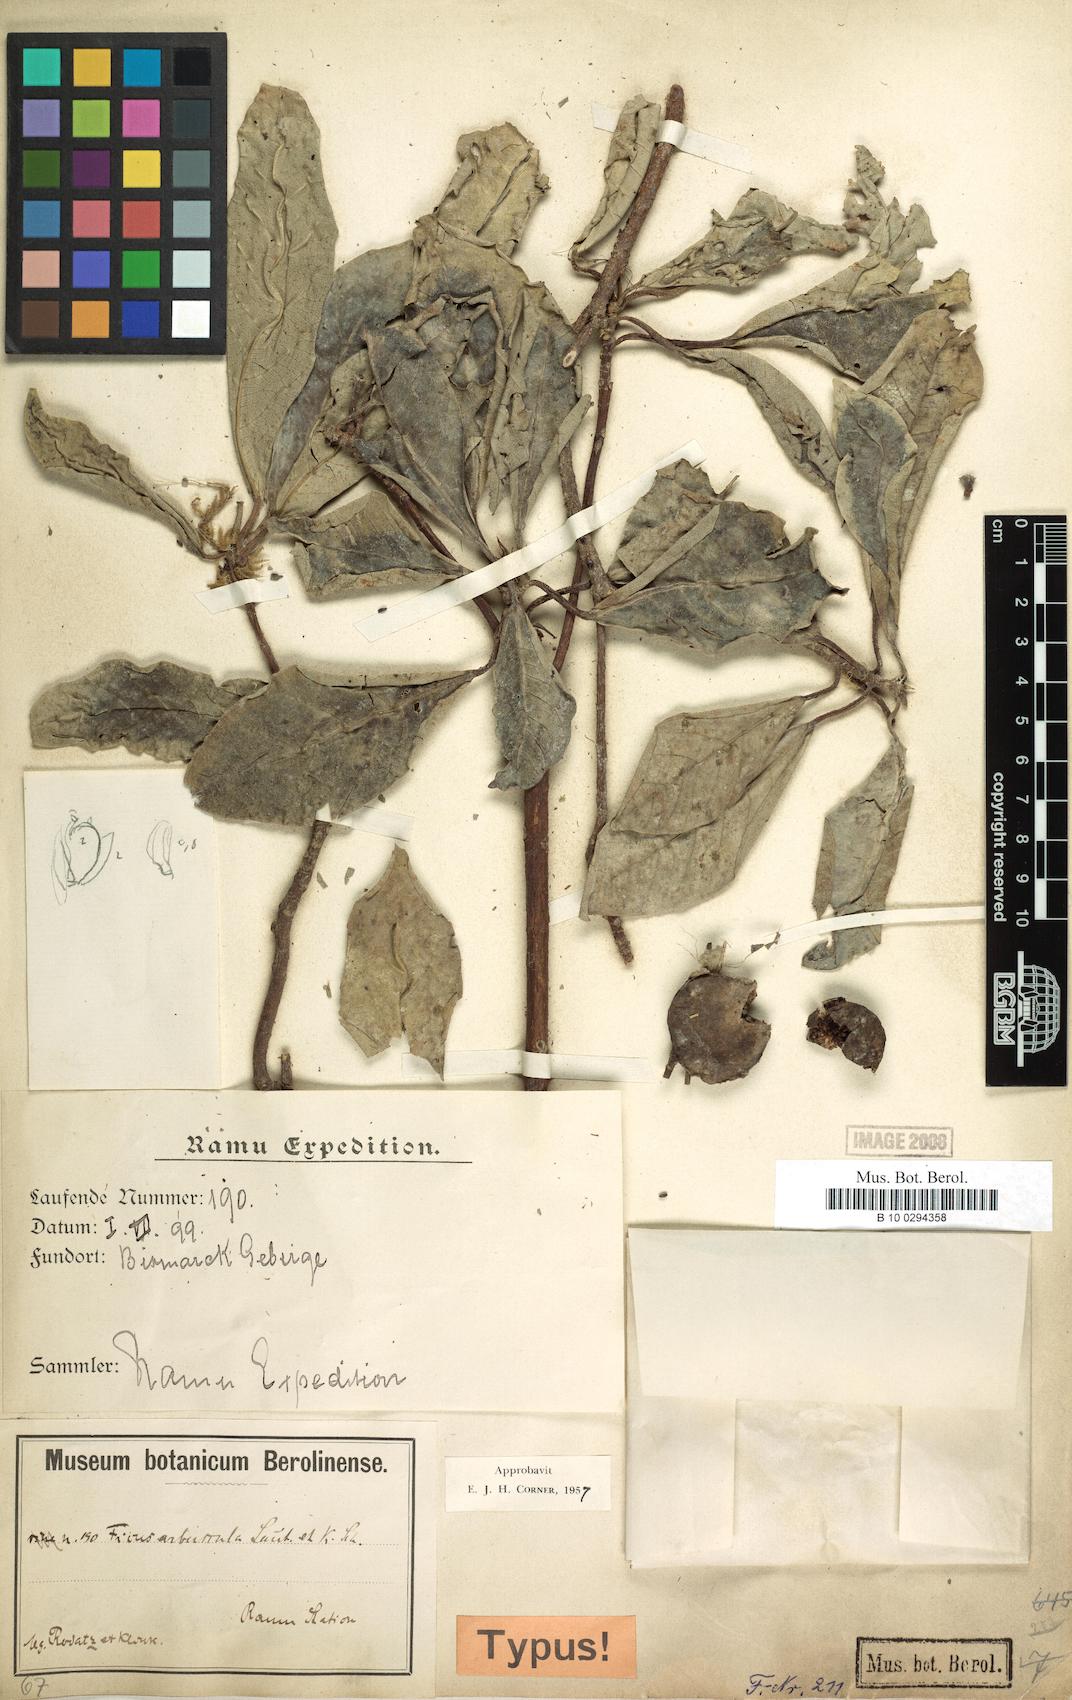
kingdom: Plantae
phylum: Tracheophyta
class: Magnoliopsida
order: Rosales
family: Moraceae
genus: Ficus
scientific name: Ficus arbuscula
